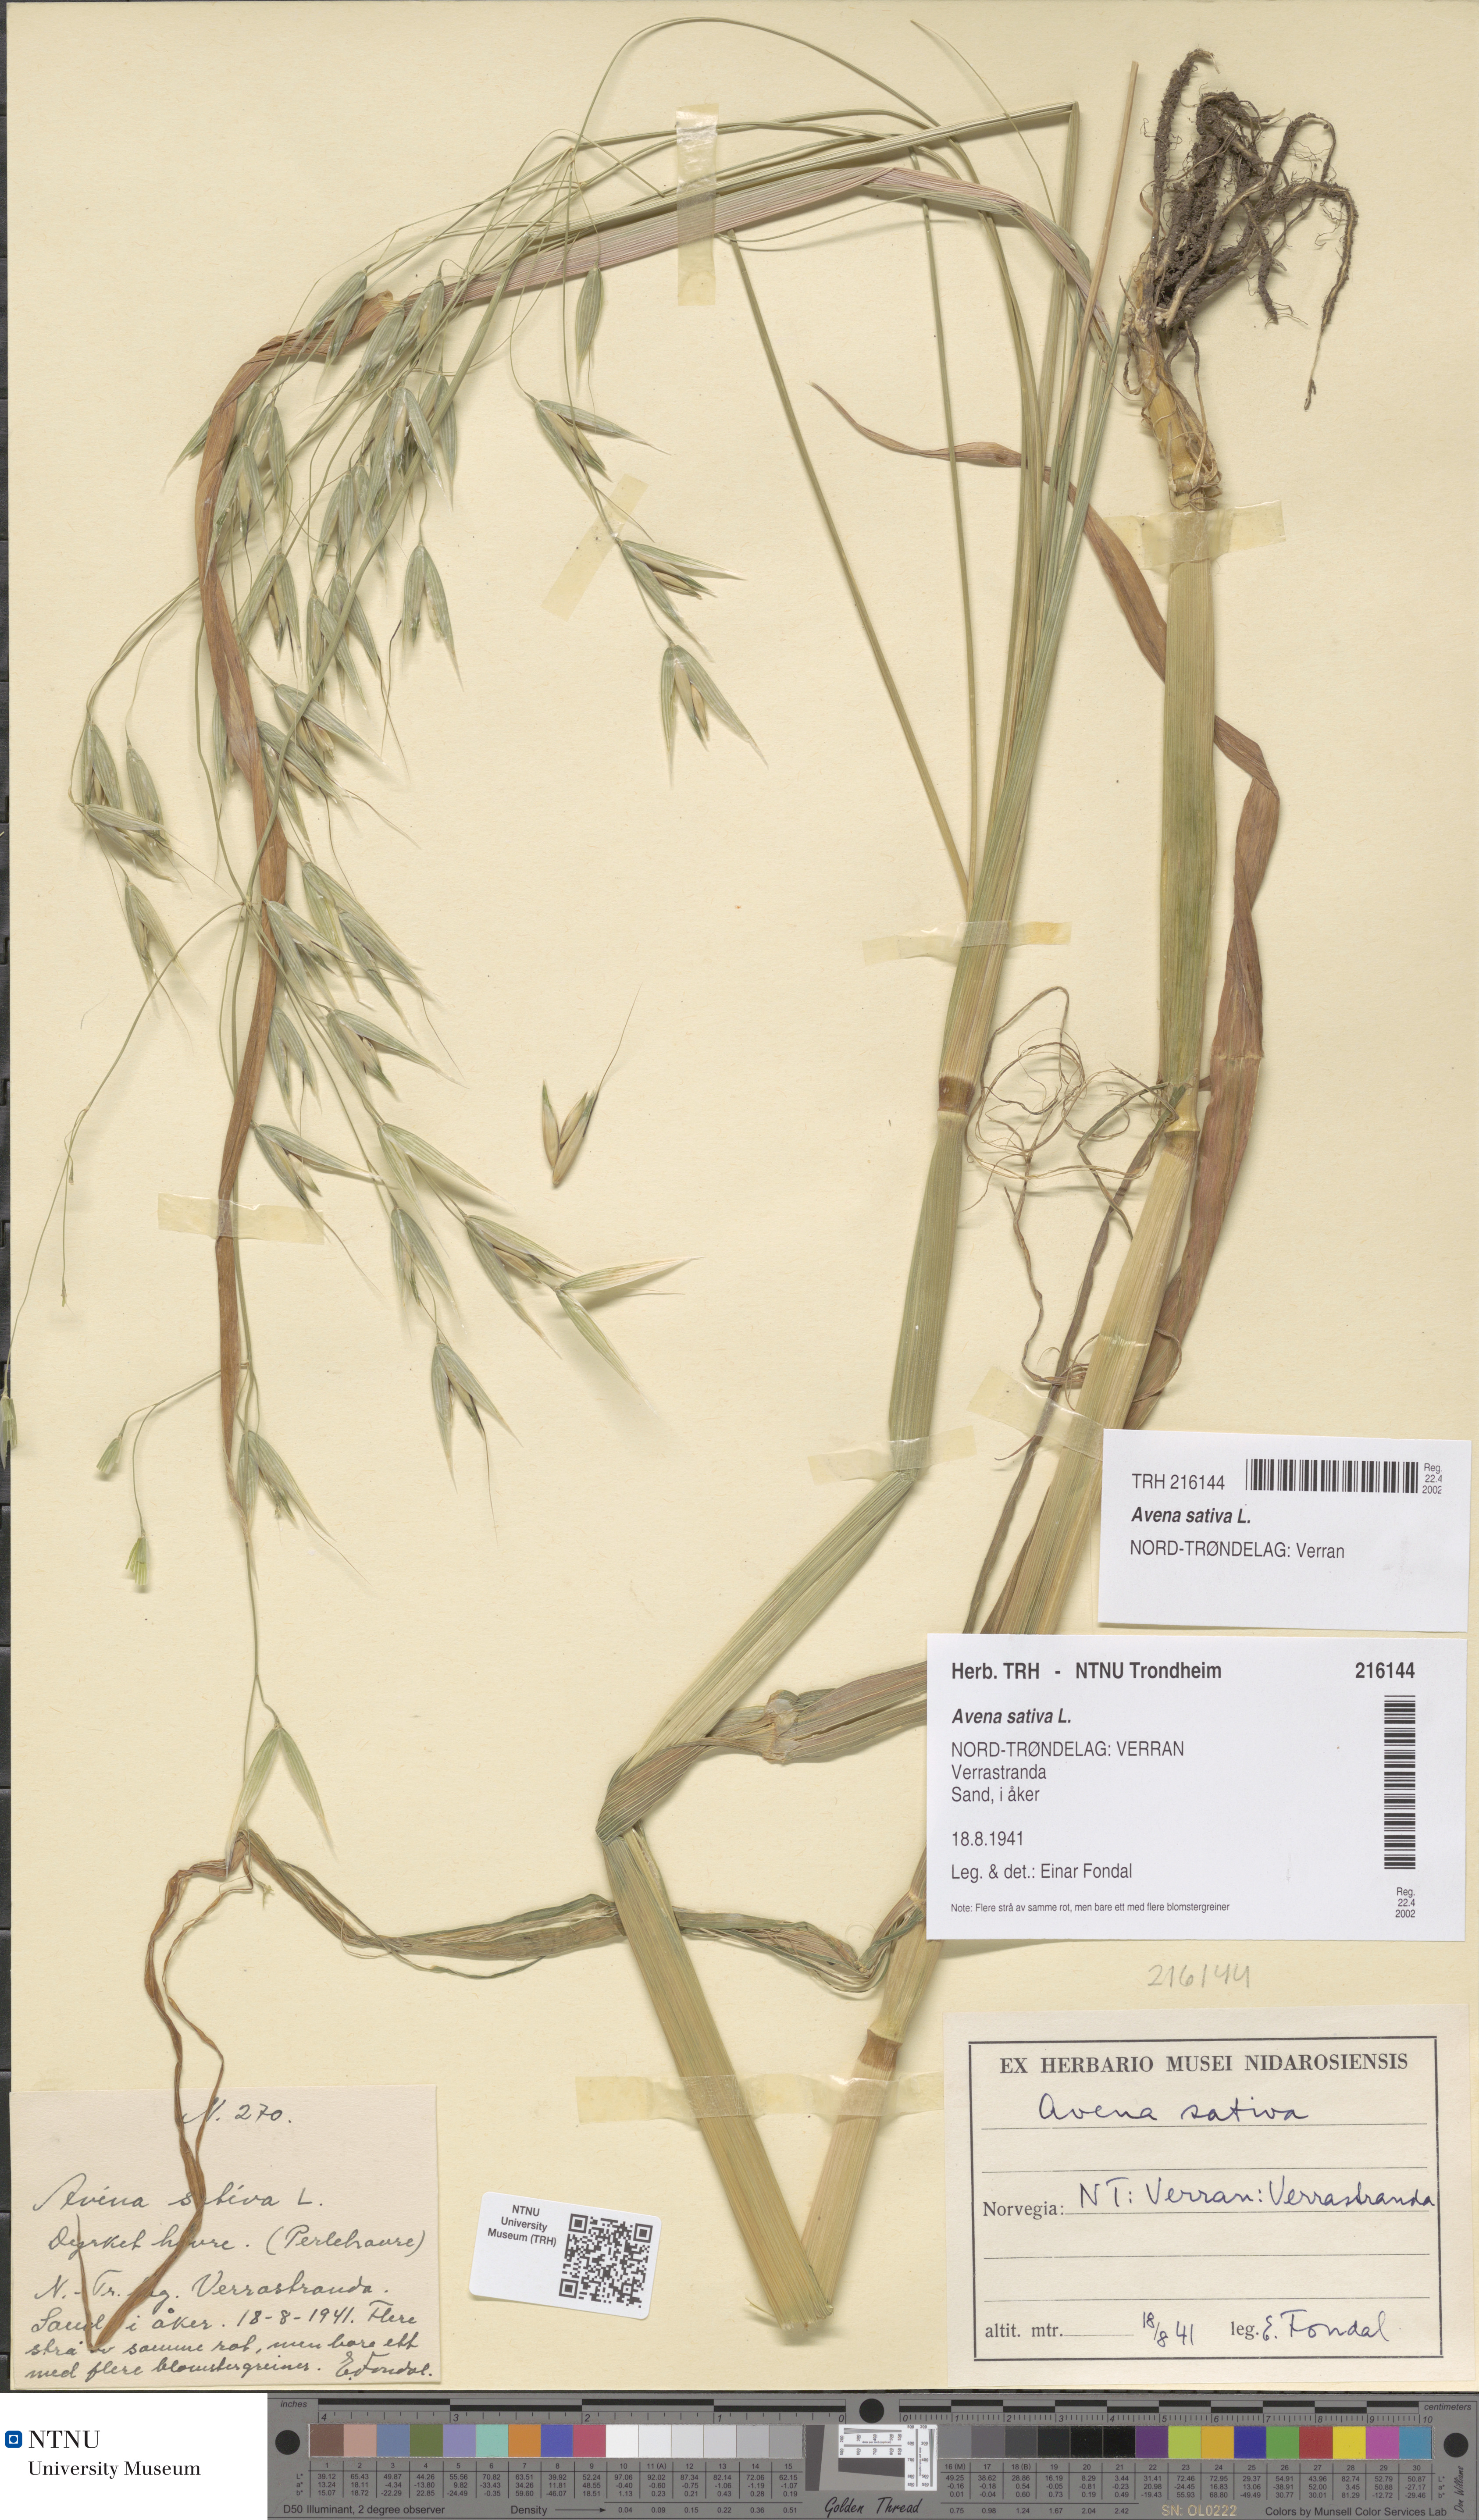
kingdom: Plantae
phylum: Tracheophyta
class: Liliopsida
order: Poales
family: Poaceae
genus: Avena
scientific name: Avena sativa
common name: Oat
